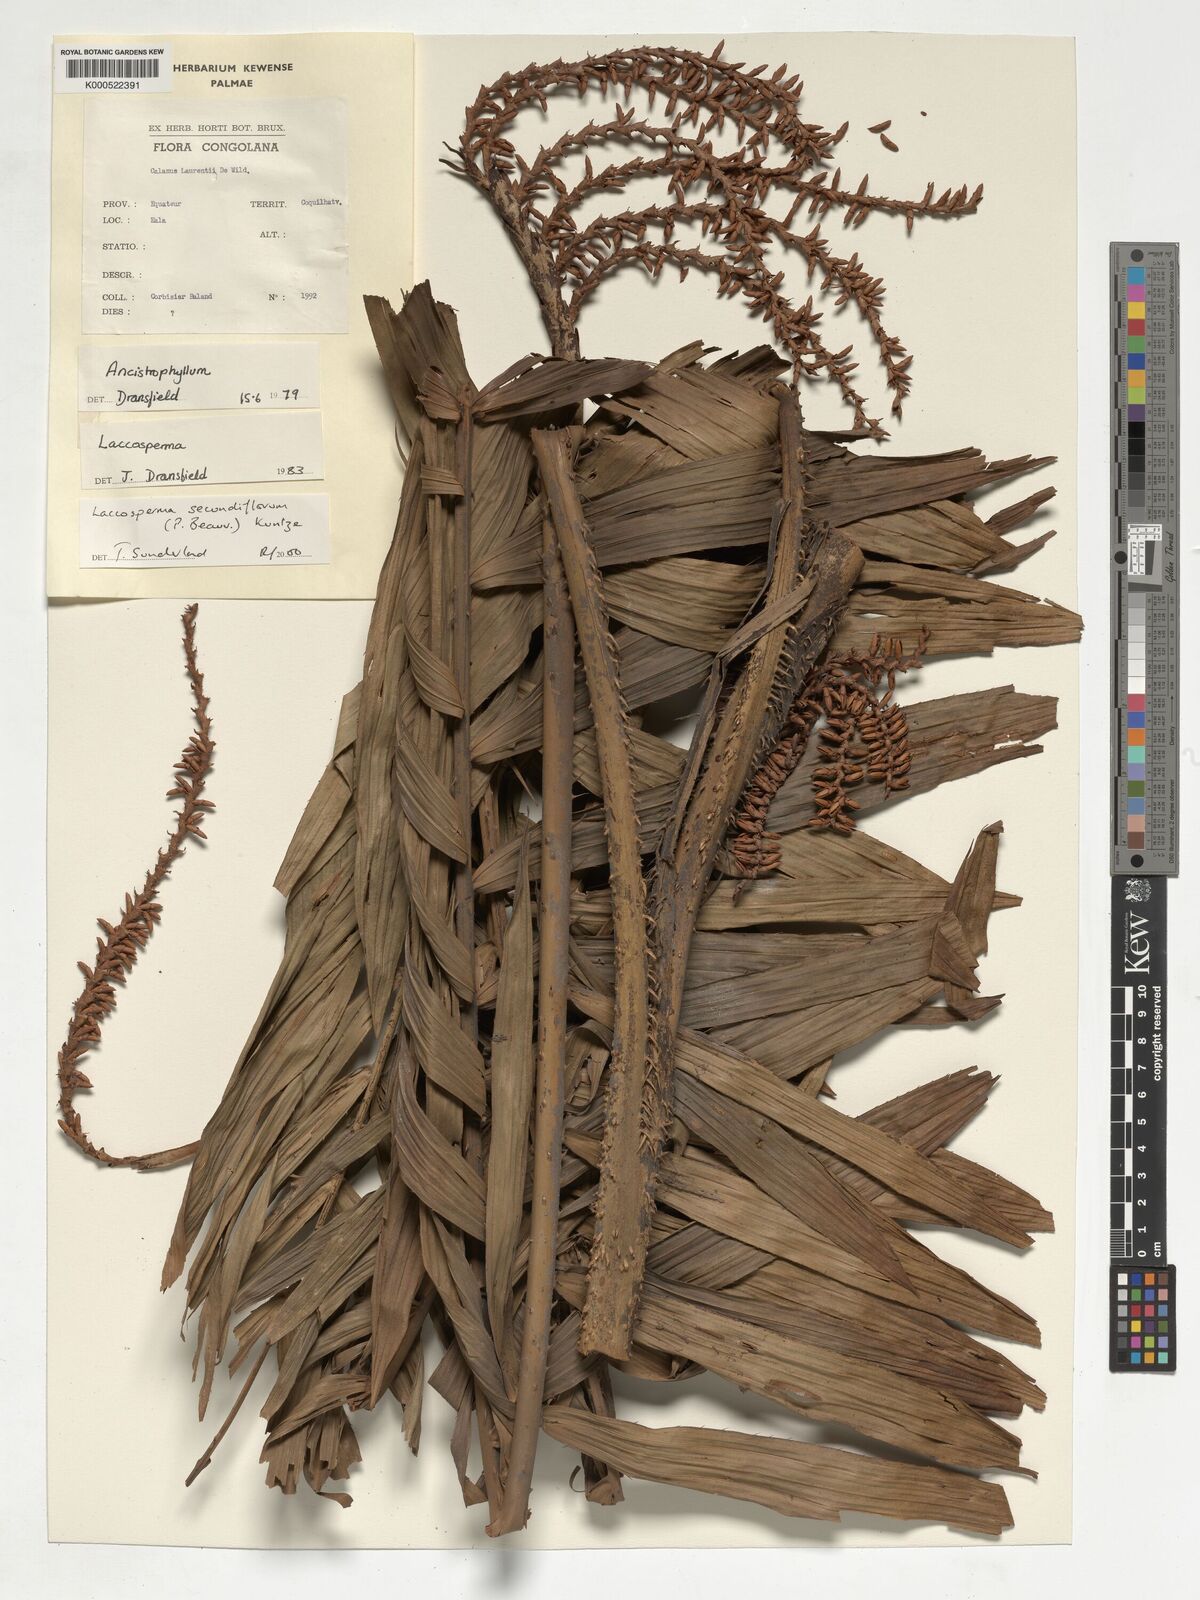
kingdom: Plantae
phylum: Tracheophyta
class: Liliopsida
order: Arecales
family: Arecaceae
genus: Laccosperma
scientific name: Laccosperma secundiflorum
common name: Rattan
